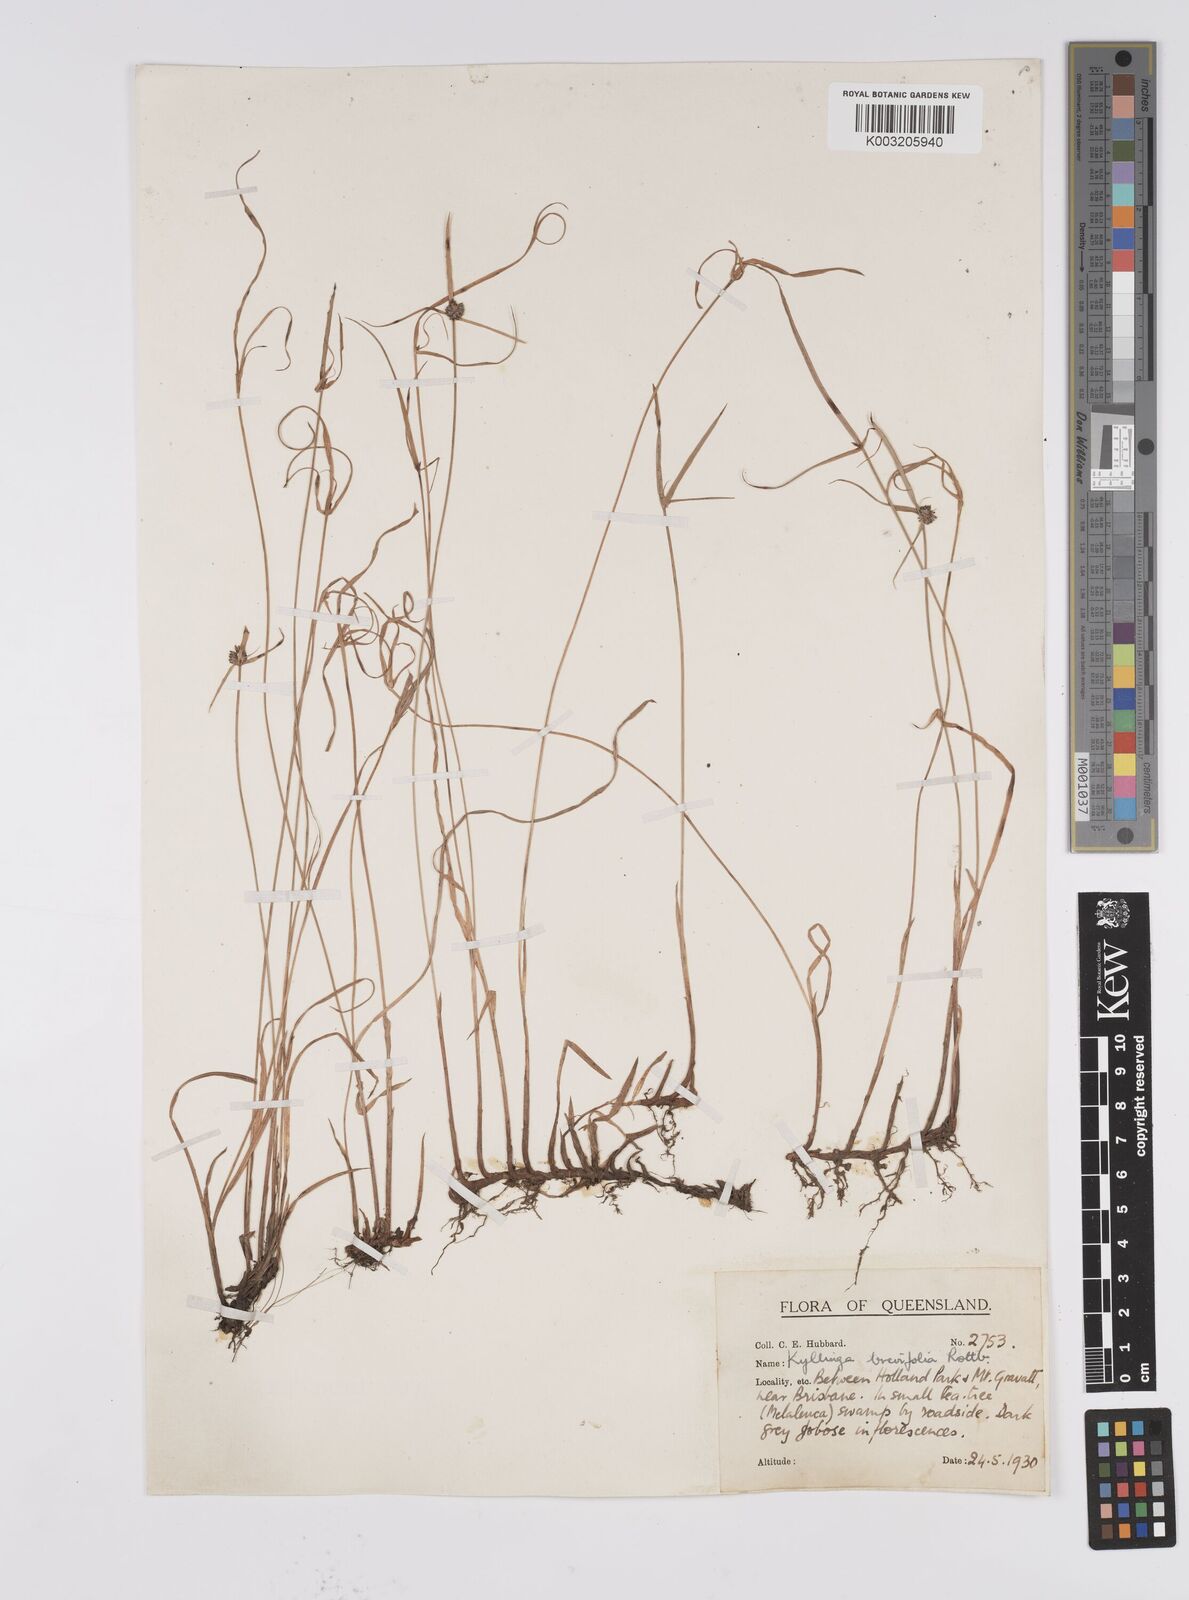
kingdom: Plantae
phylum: Tracheophyta
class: Liliopsida
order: Poales
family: Cyperaceae
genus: Cyperus
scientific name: Cyperus brevifolius
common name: Globe kyllinga
